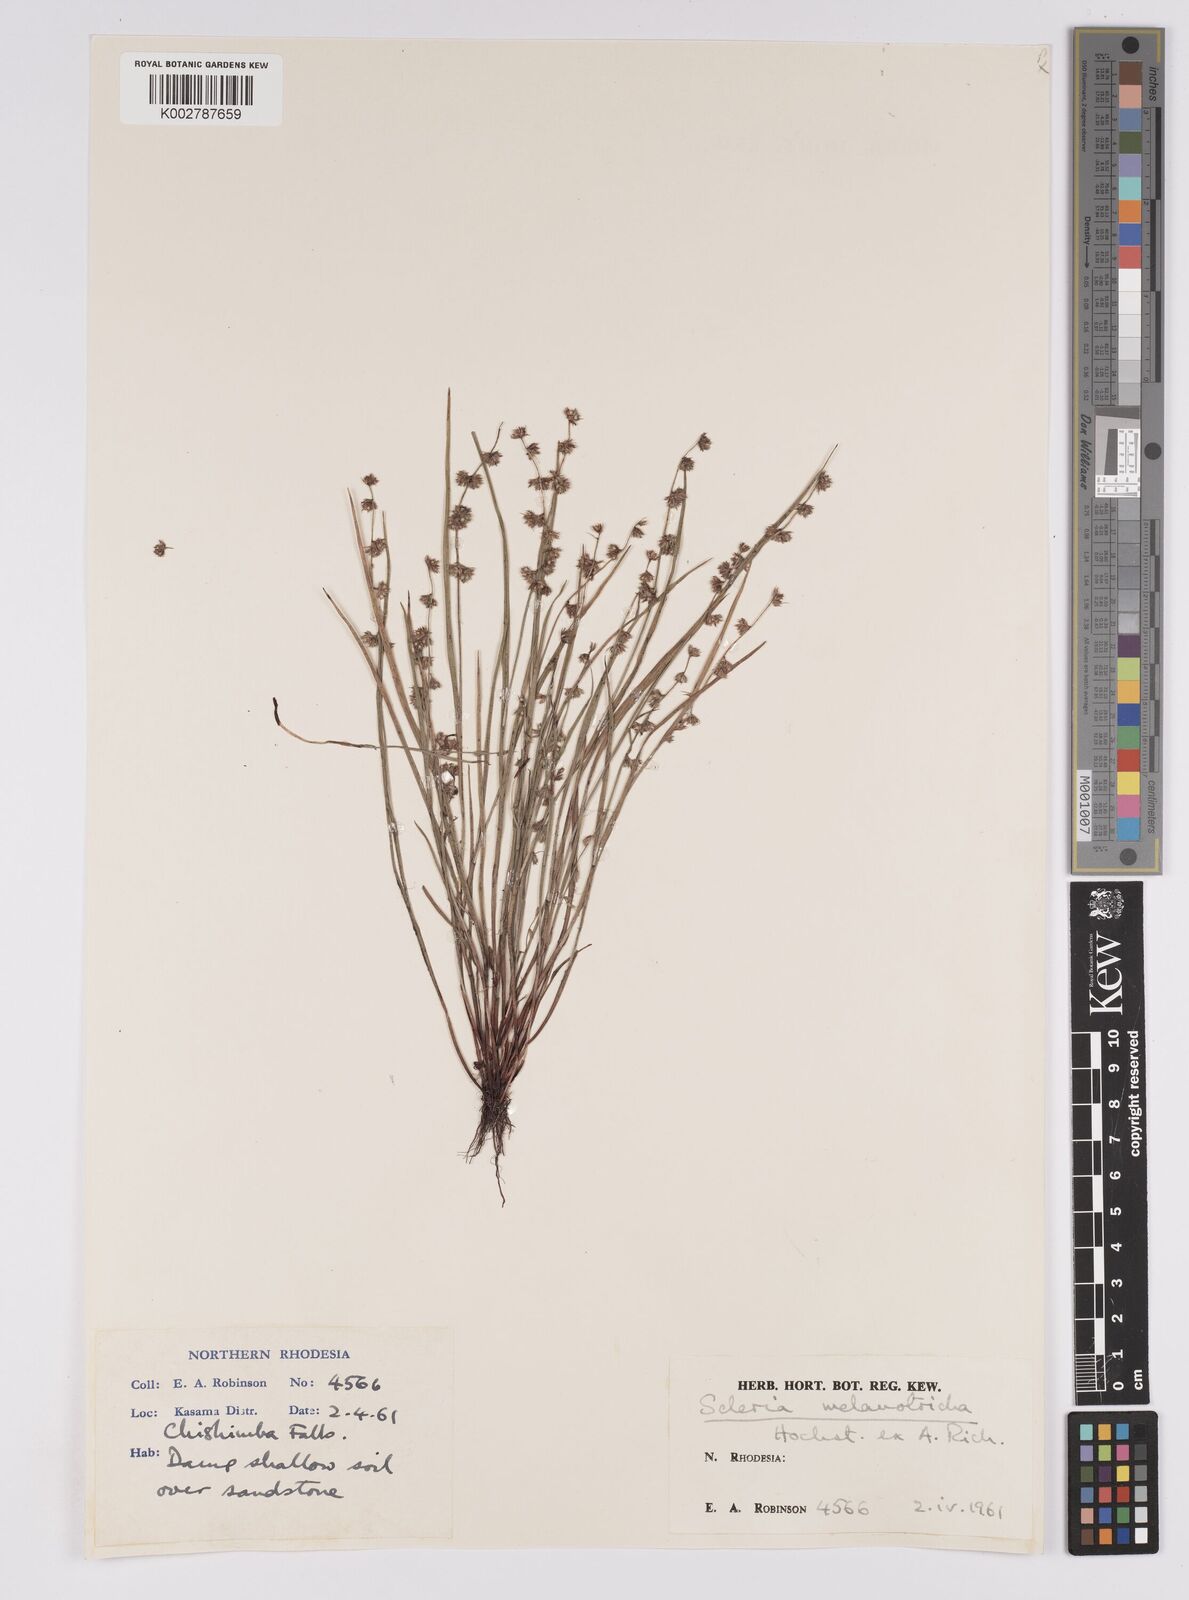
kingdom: Plantae
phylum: Tracheophyta
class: Liliopsida
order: Poales
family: Cyperaceae
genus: Scleria
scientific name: Scleria melanotricha
